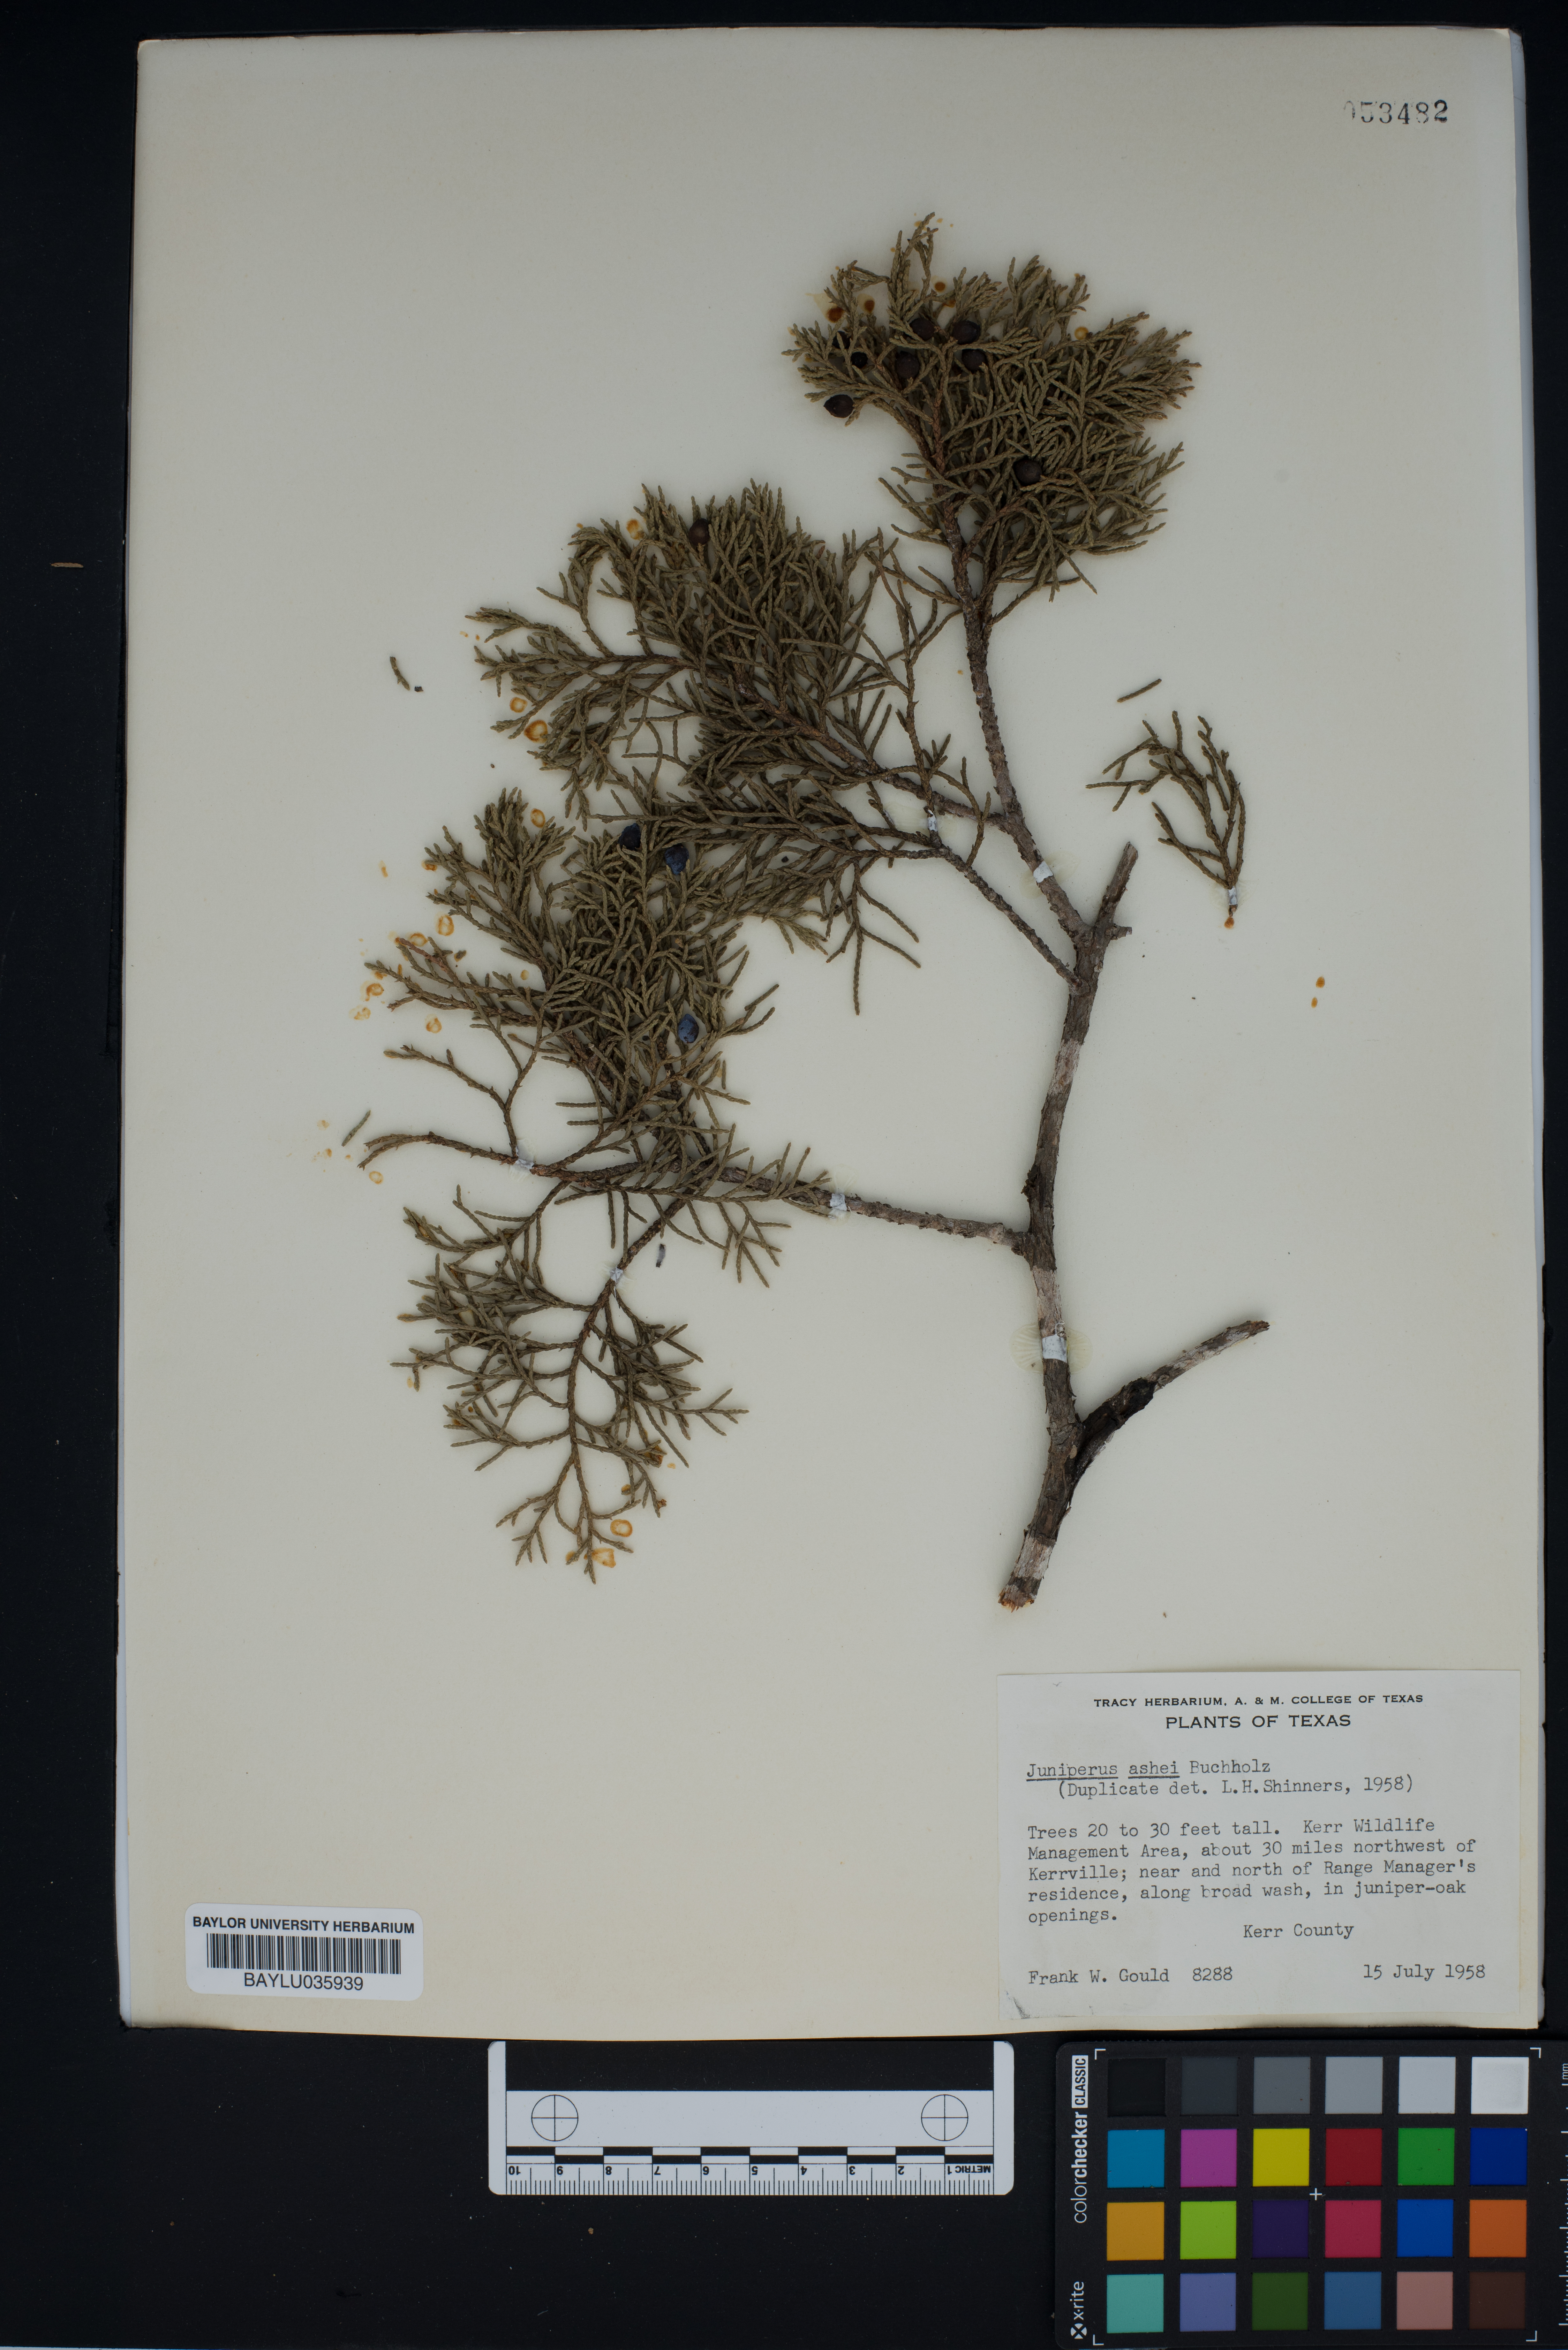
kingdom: Plantae
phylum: Tracheophyta
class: Pinopsida
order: Pinales
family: Cupressaceae
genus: Juniperus
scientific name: Juniperus ashei
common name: Mexican juniper
